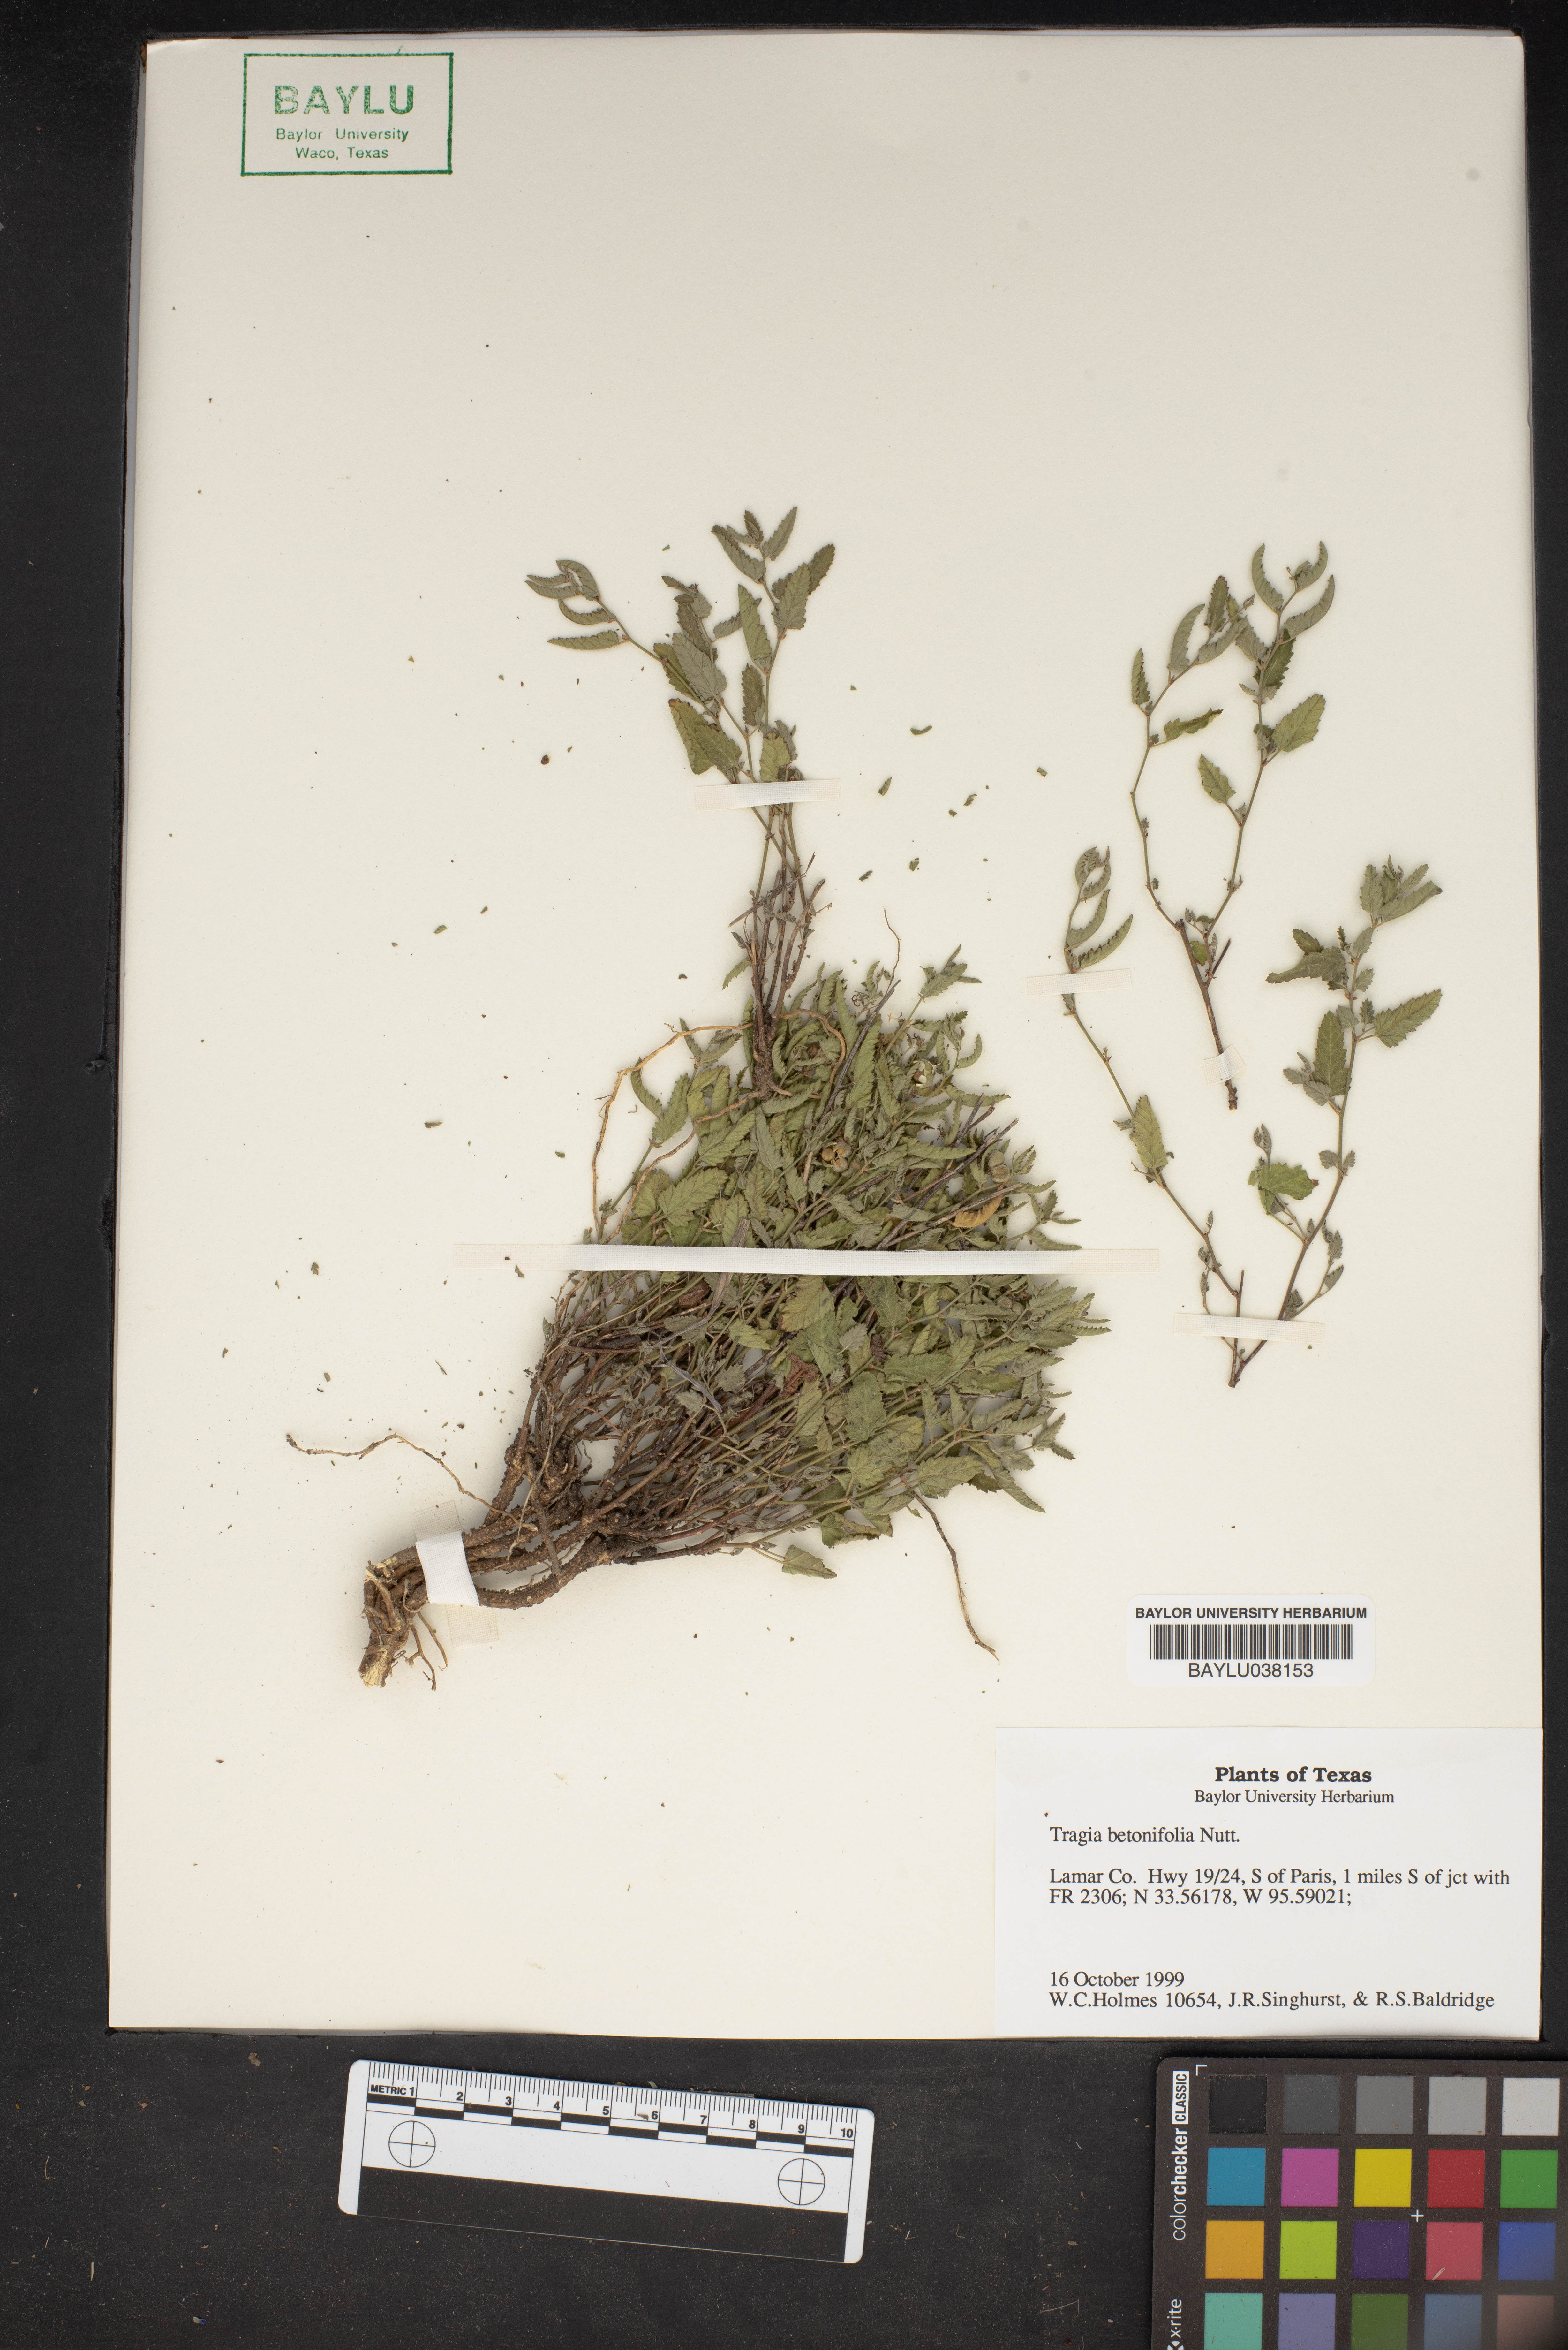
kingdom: Plantae
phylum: Tracheophyta
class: Magnoliopsida
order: Malpighiales
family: Euphorbiaceae
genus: Tragia
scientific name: Tragia betonicifolia
